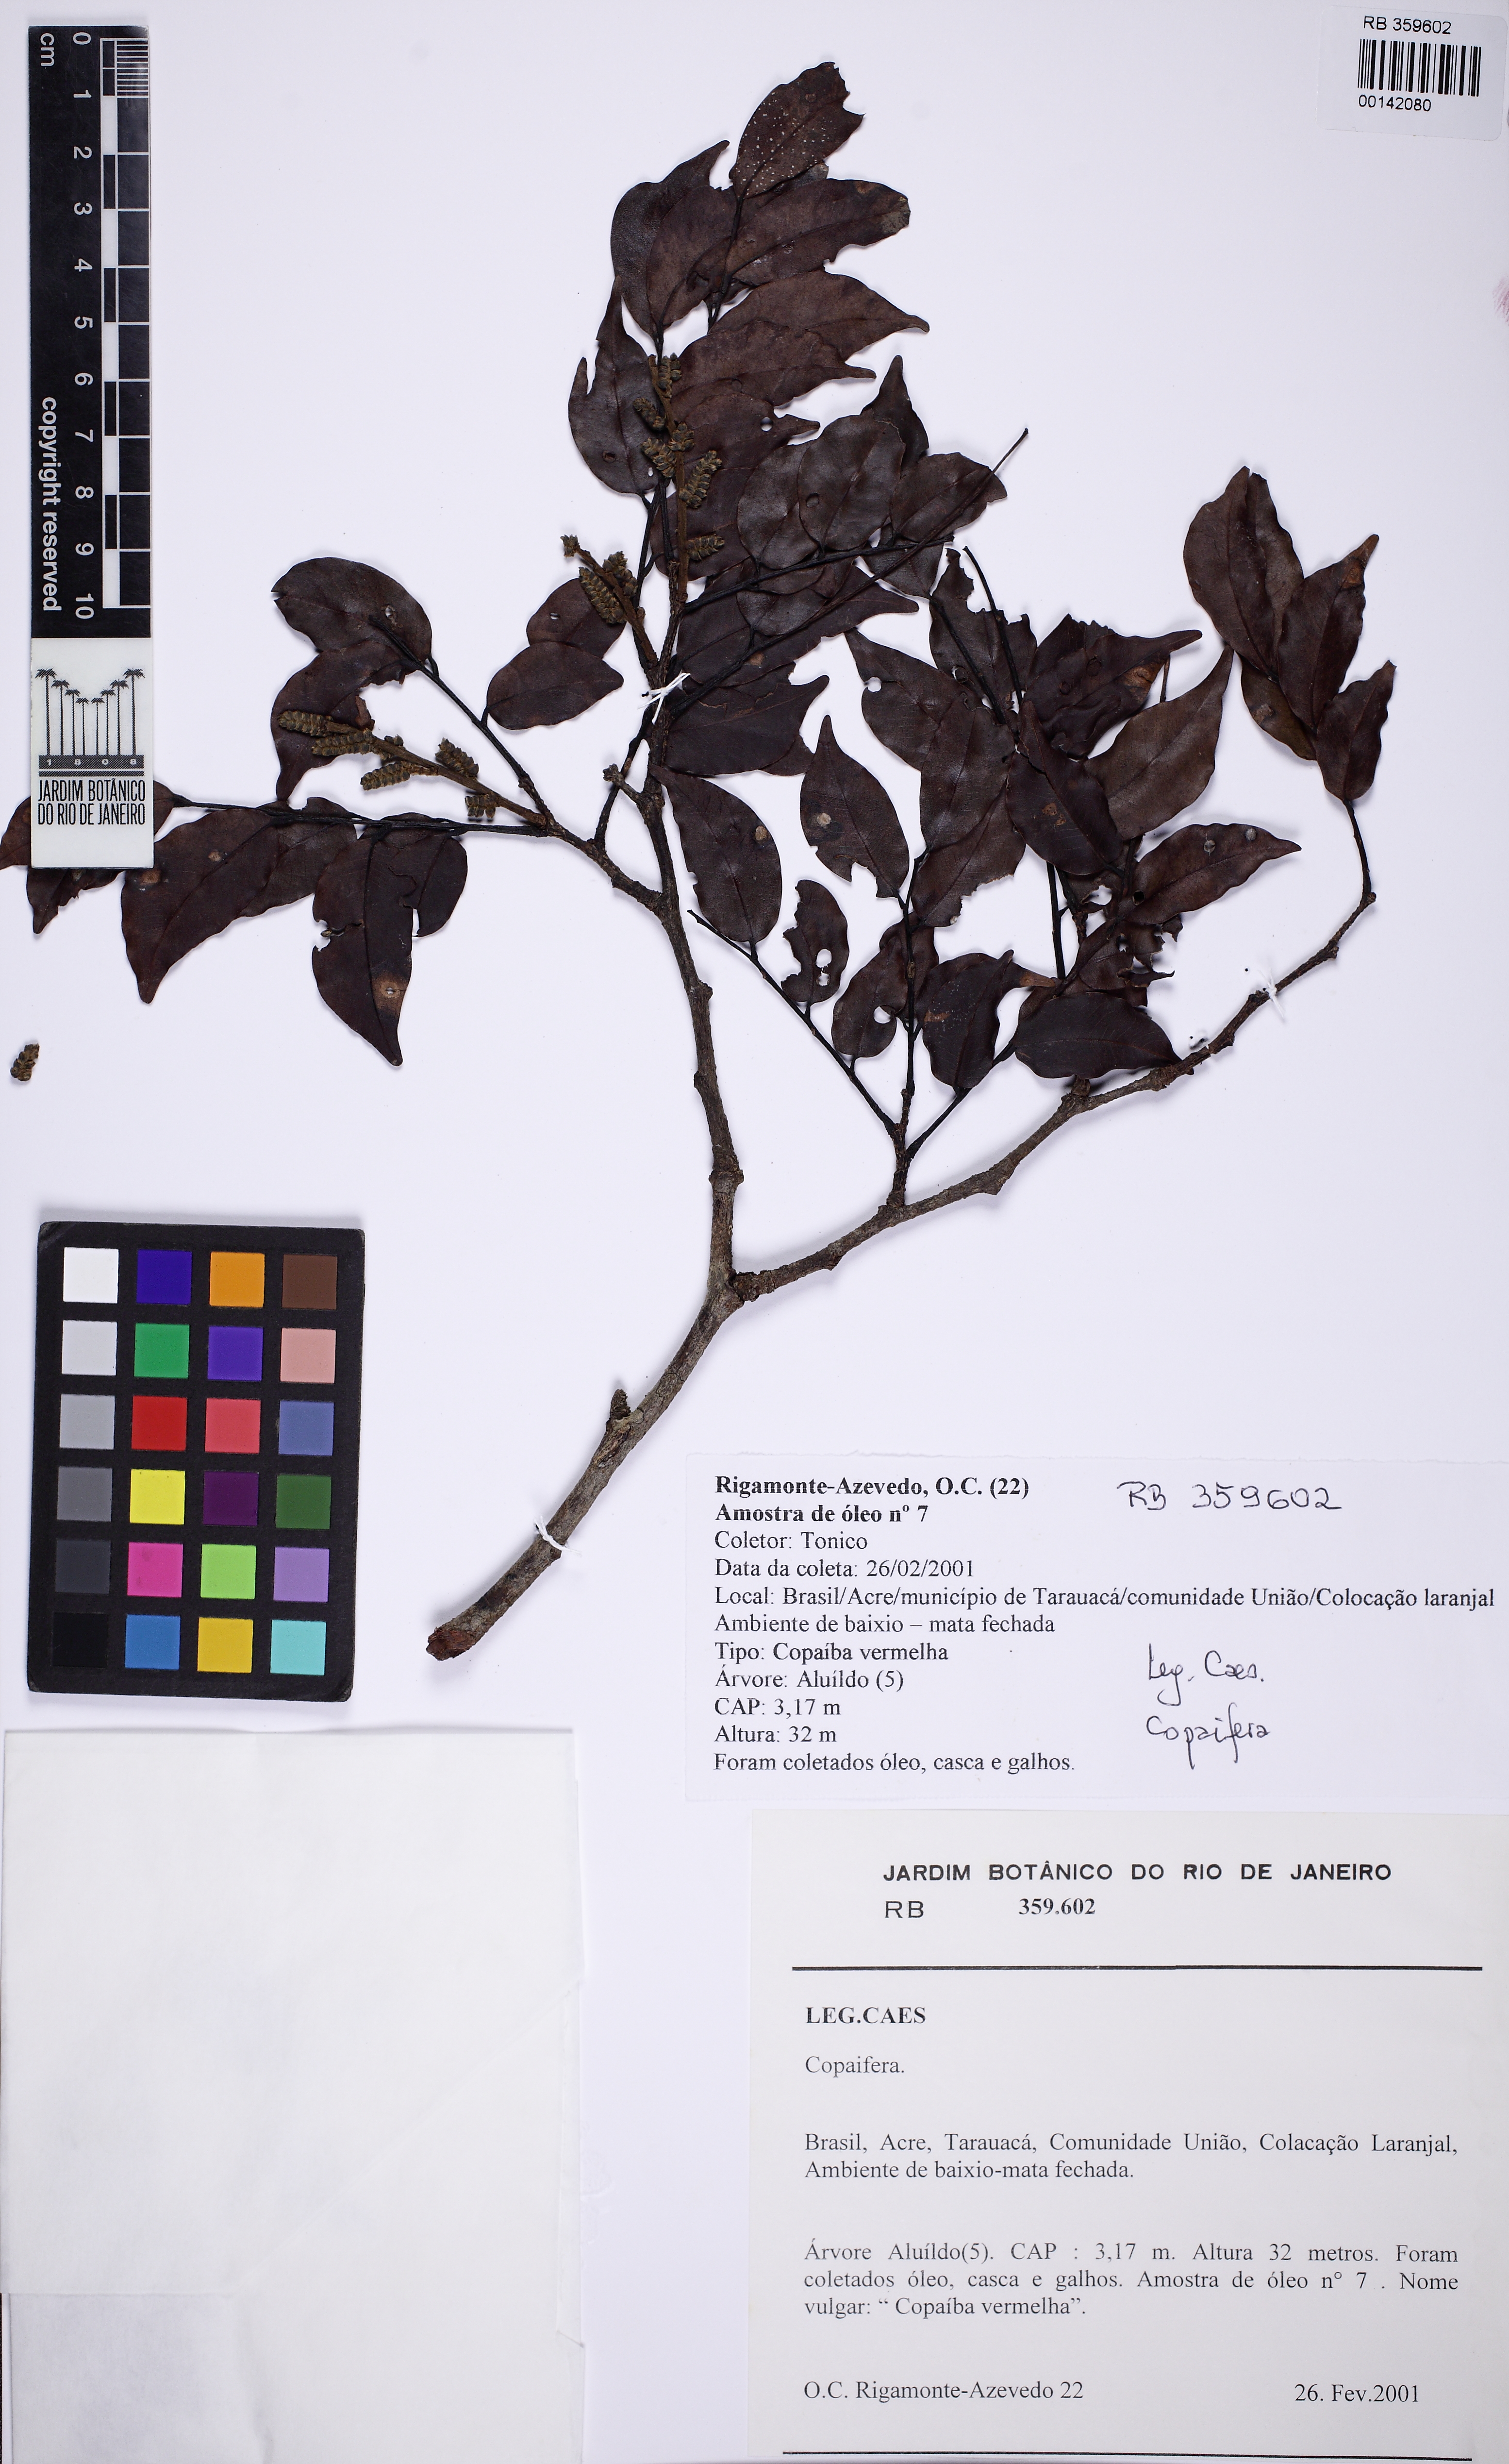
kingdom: Plantae
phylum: Tracheophyta
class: Magnoliopsida
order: Fabales
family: Fabaceae
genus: Copaifera
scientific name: Copaifera
